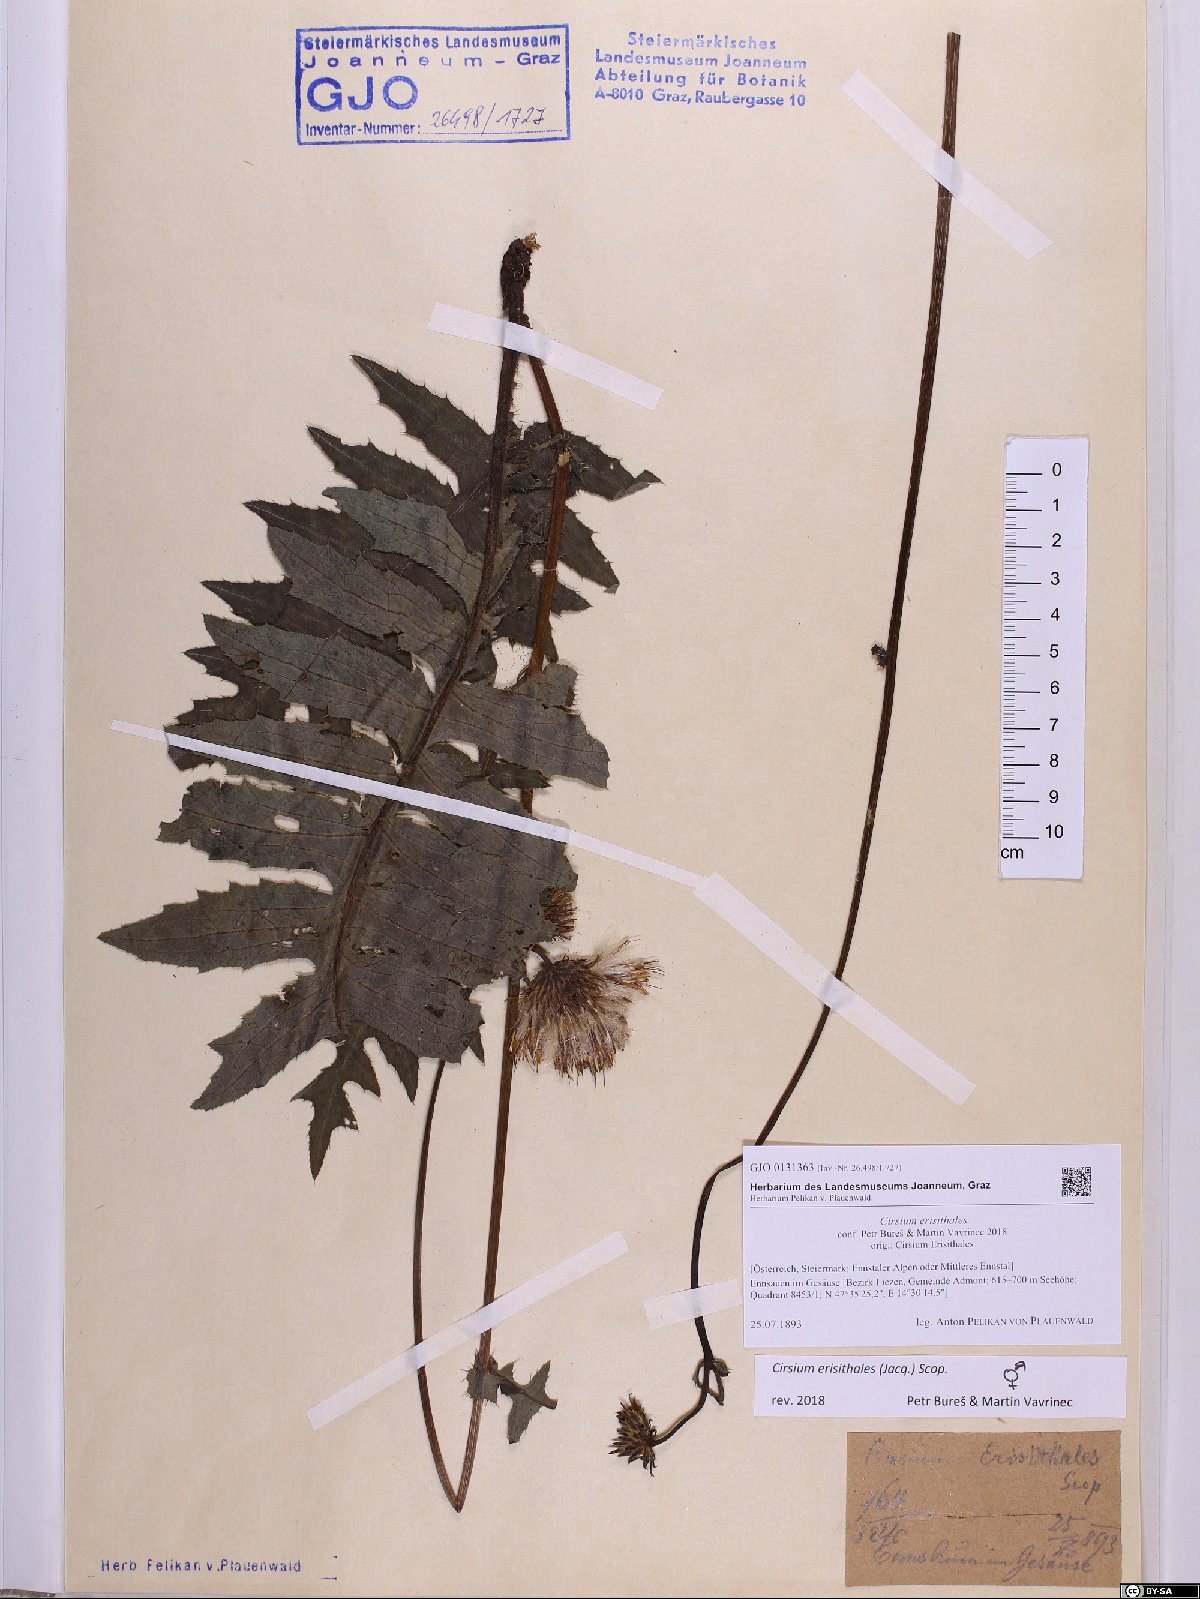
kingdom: Plantae
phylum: Tracheophyta
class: Magnoliopsida
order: Asterales
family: Asteraceae
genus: Cirsium
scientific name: Cirsium erisithales
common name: Yellow thistle
